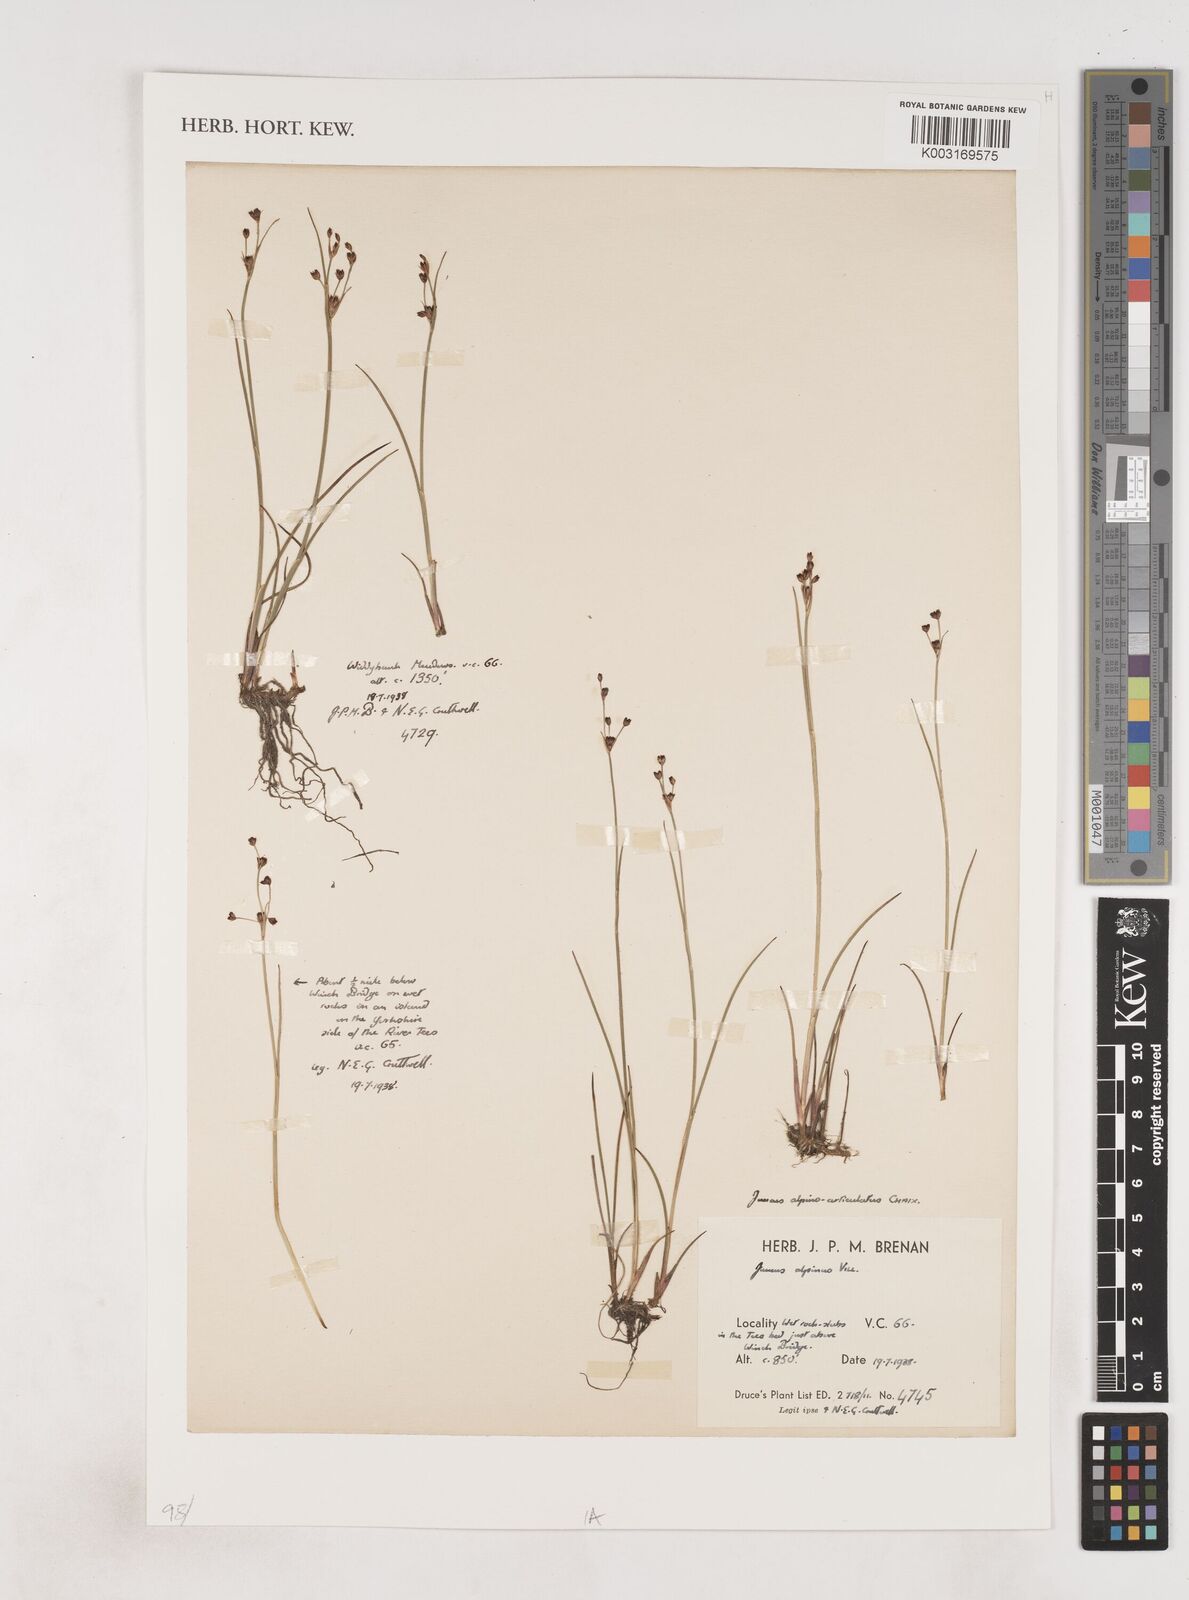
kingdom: Plantae
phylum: Tracheophyta
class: Liliopsida
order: Poales
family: Juncaceae
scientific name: Juncaceae
